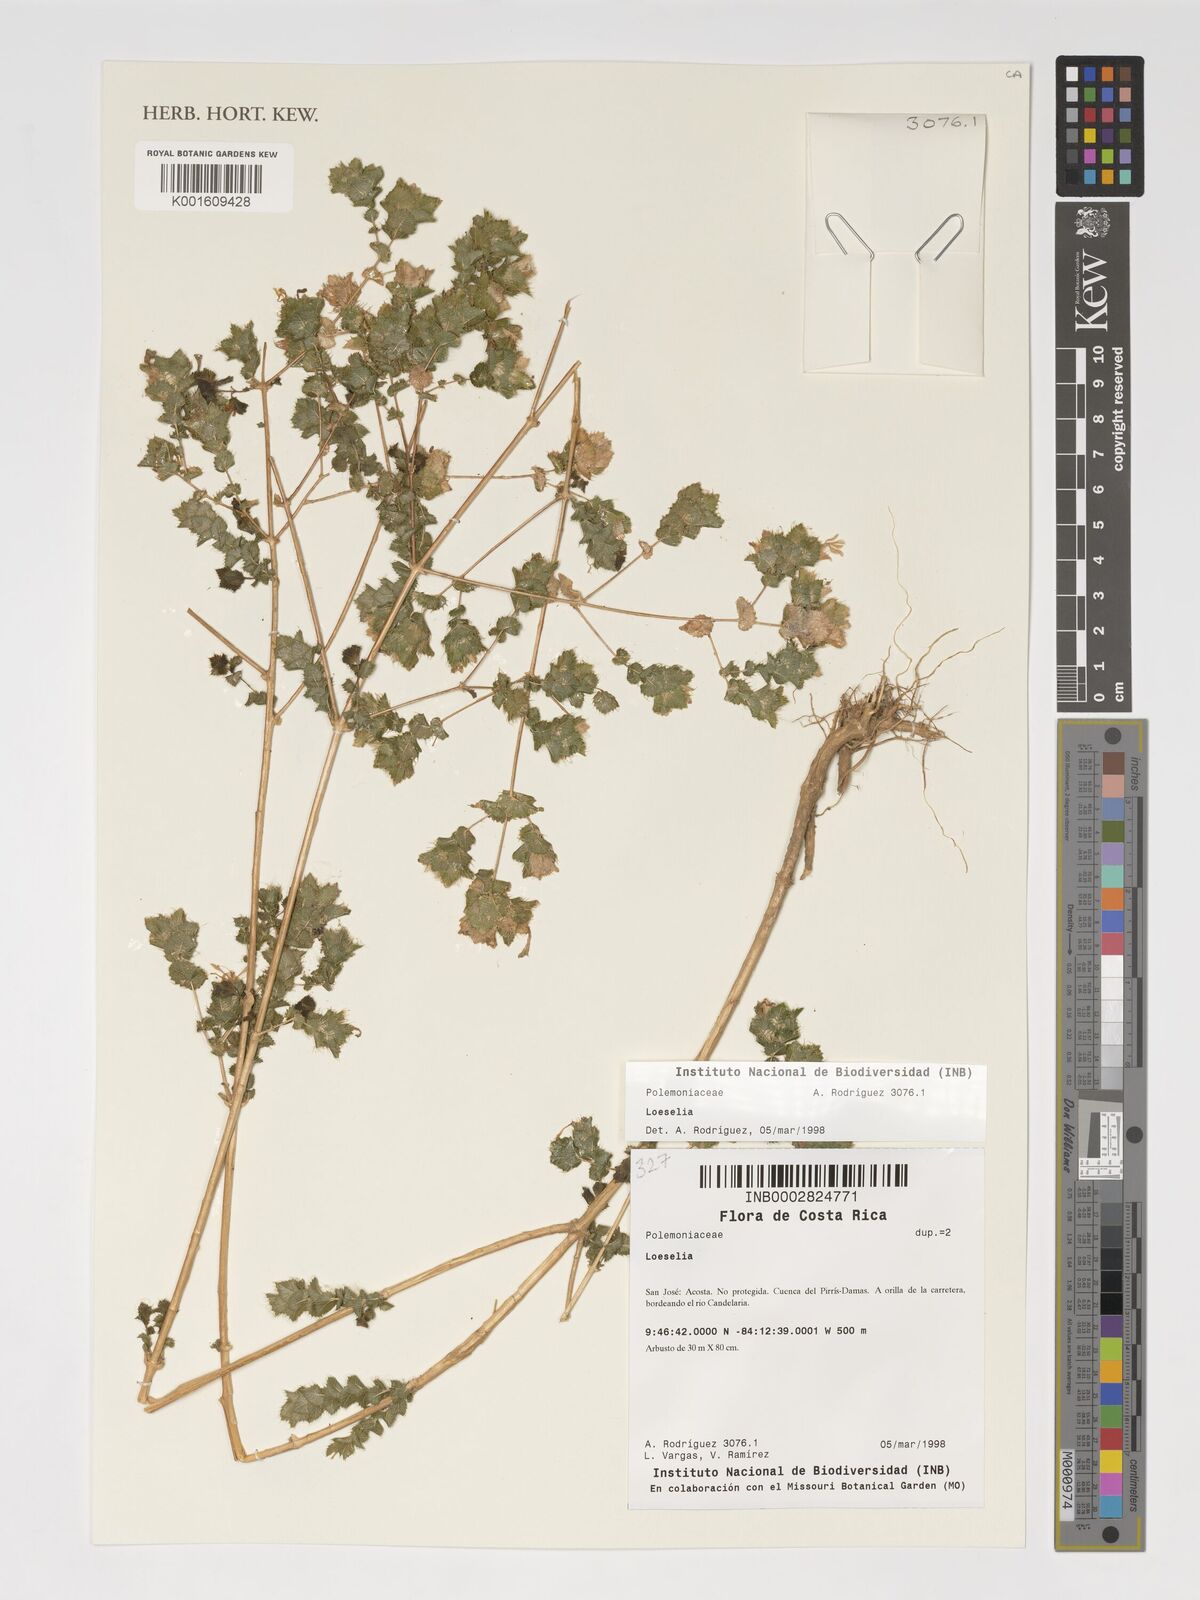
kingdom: Plantae
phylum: Tracheophyta
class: Magnoliopsida
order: Ericales
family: Polemoniaceae
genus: Loeselia
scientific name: Loeselia
